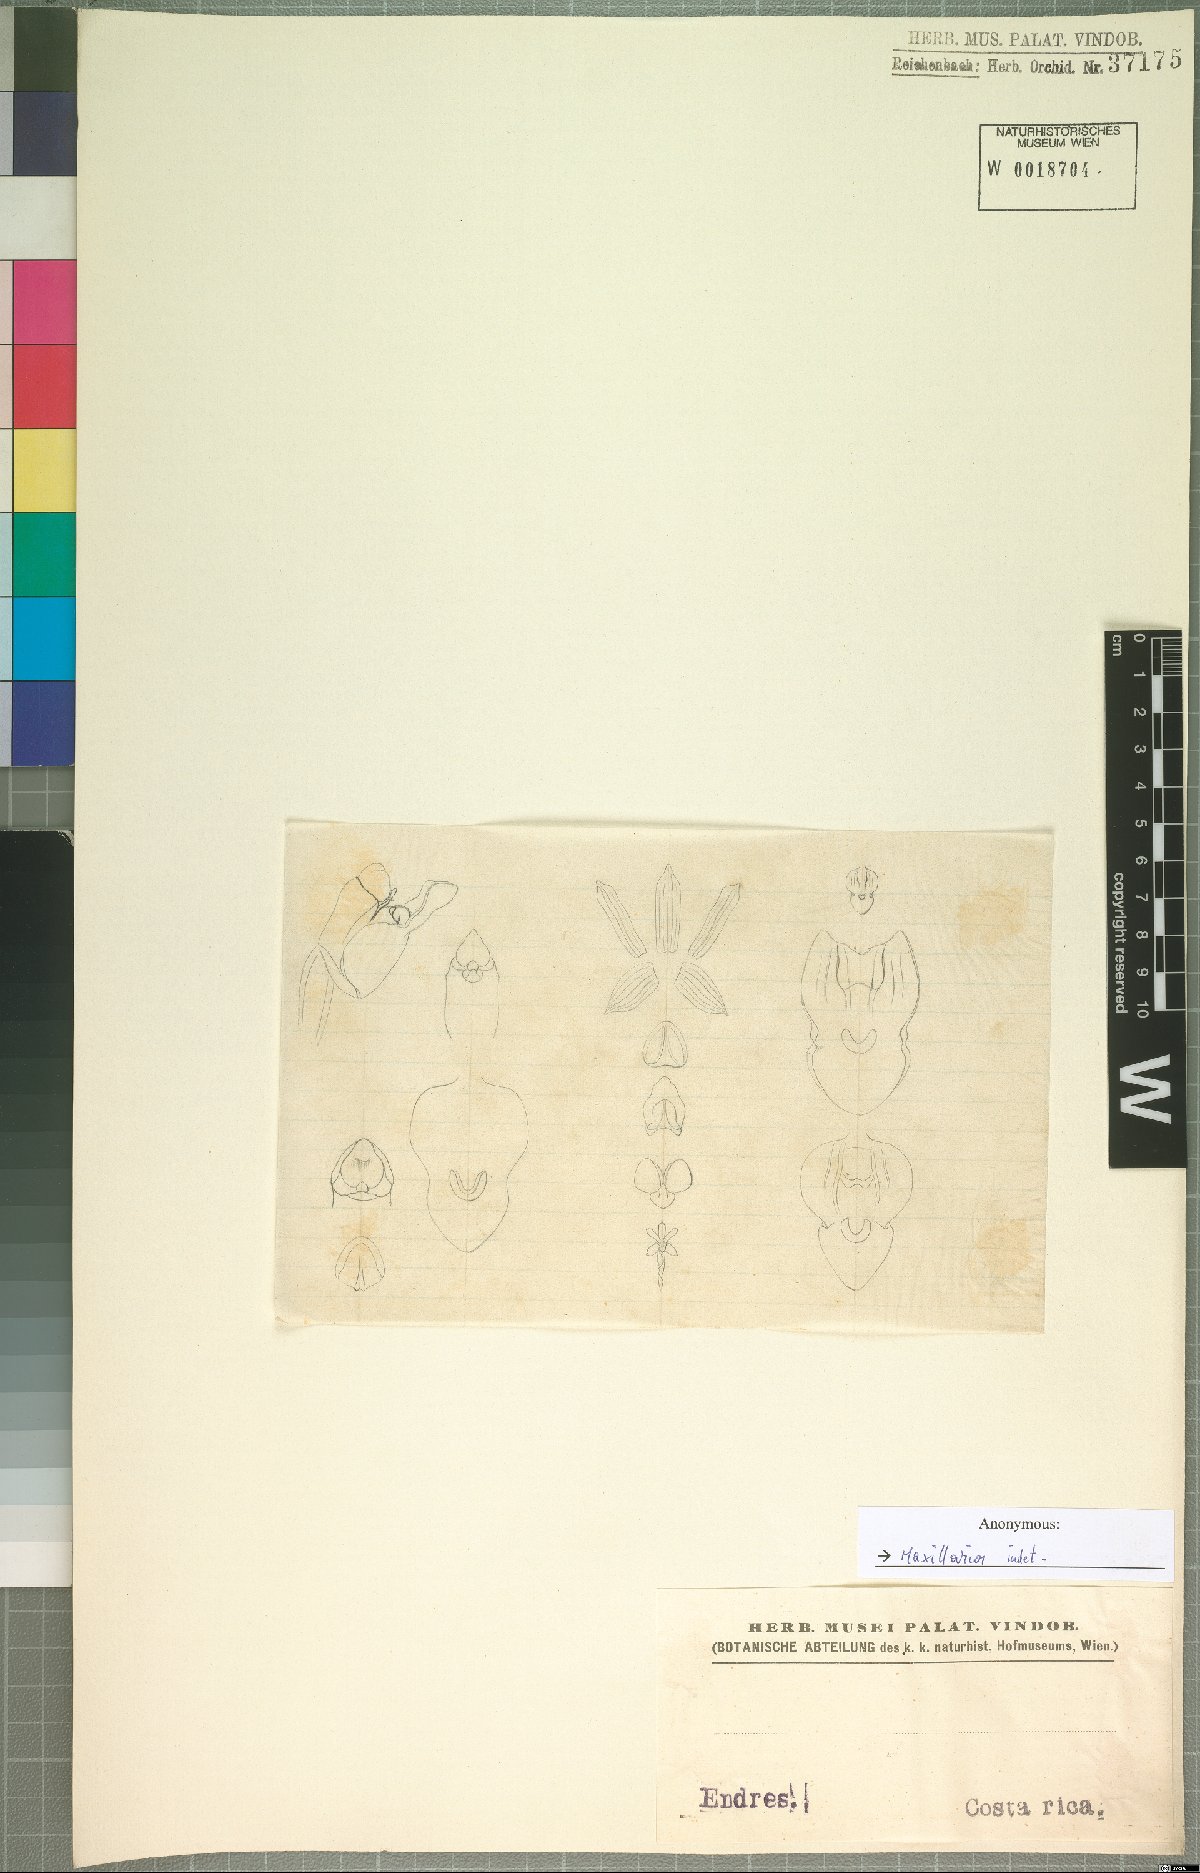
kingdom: Plantae
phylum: Tracheophyta
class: Liliopsida
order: Asparagales
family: Orchidaceae
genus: Maxillaria
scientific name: Maxillaria
